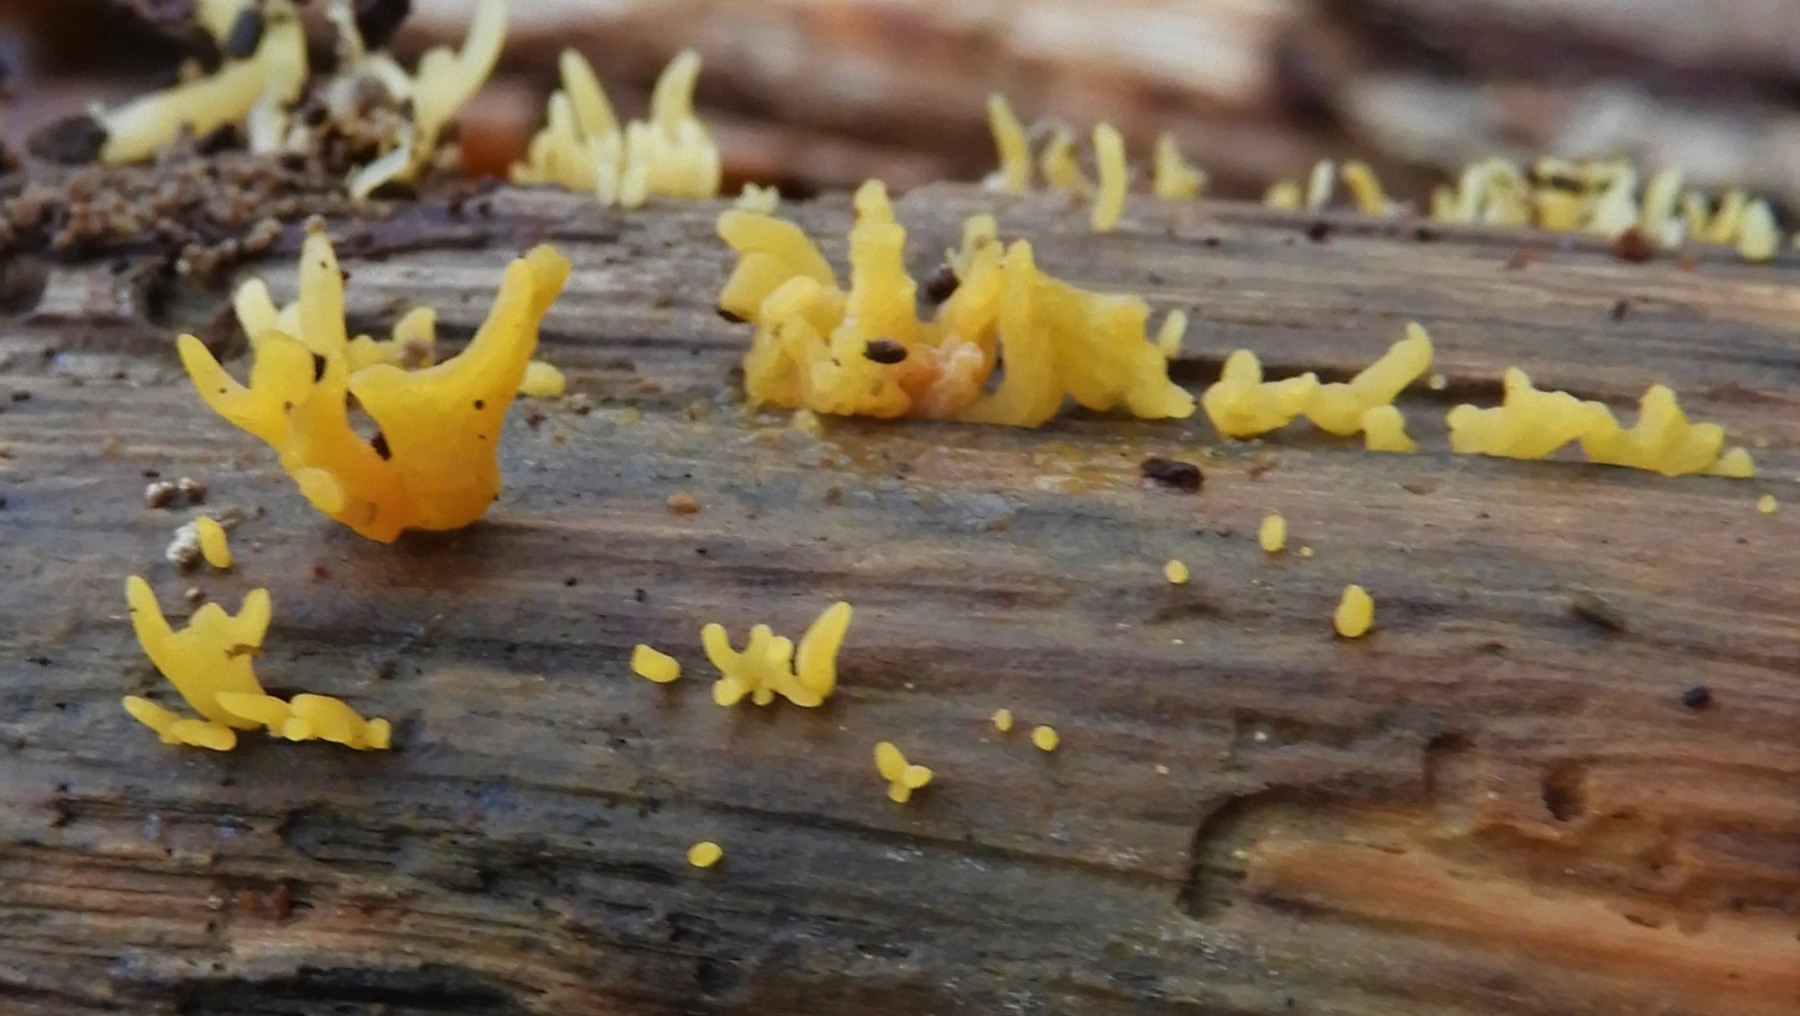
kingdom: Fungi
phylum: Basidiomycota
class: Dacrymycetes
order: Dacrymycetales
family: Dacrymycetaceae
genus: Calocera
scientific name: Calocera cornea
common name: liden guldgaffel
